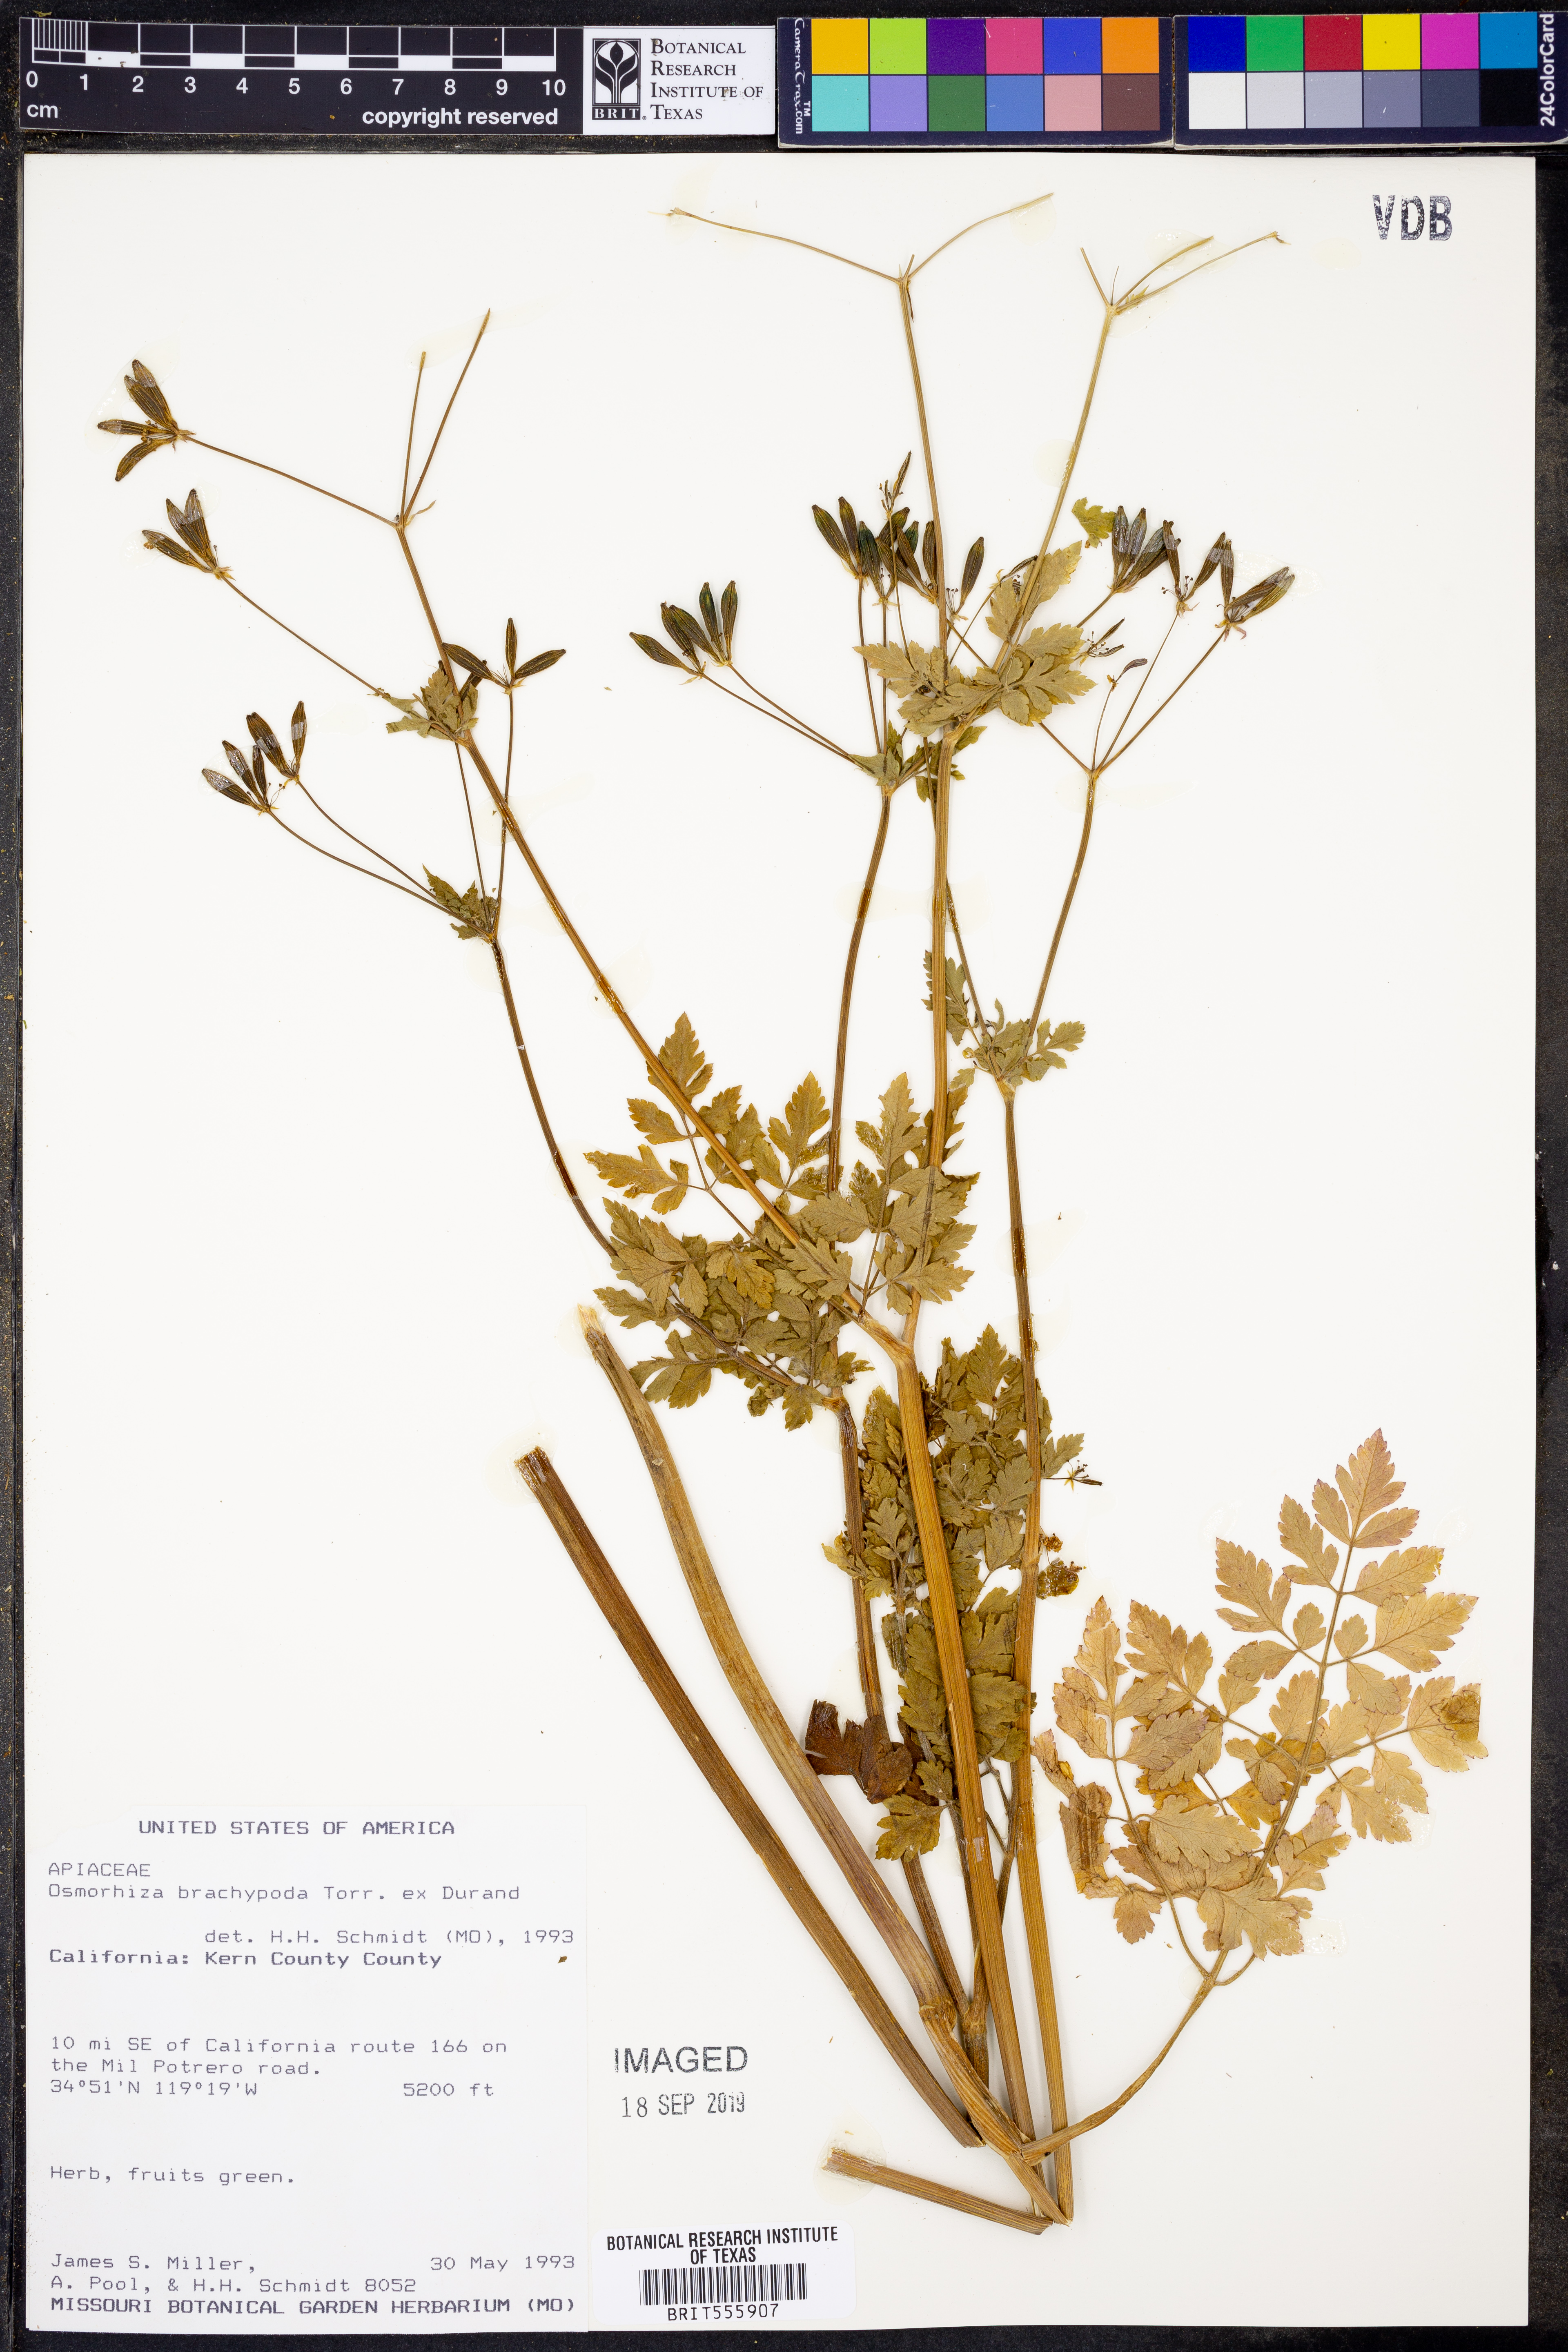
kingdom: Plantae
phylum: Tracheophyta
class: Magnoliopsida
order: Apiales
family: Apiaceae
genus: Osmorhiza
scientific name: Osmorhiza brachypoda
